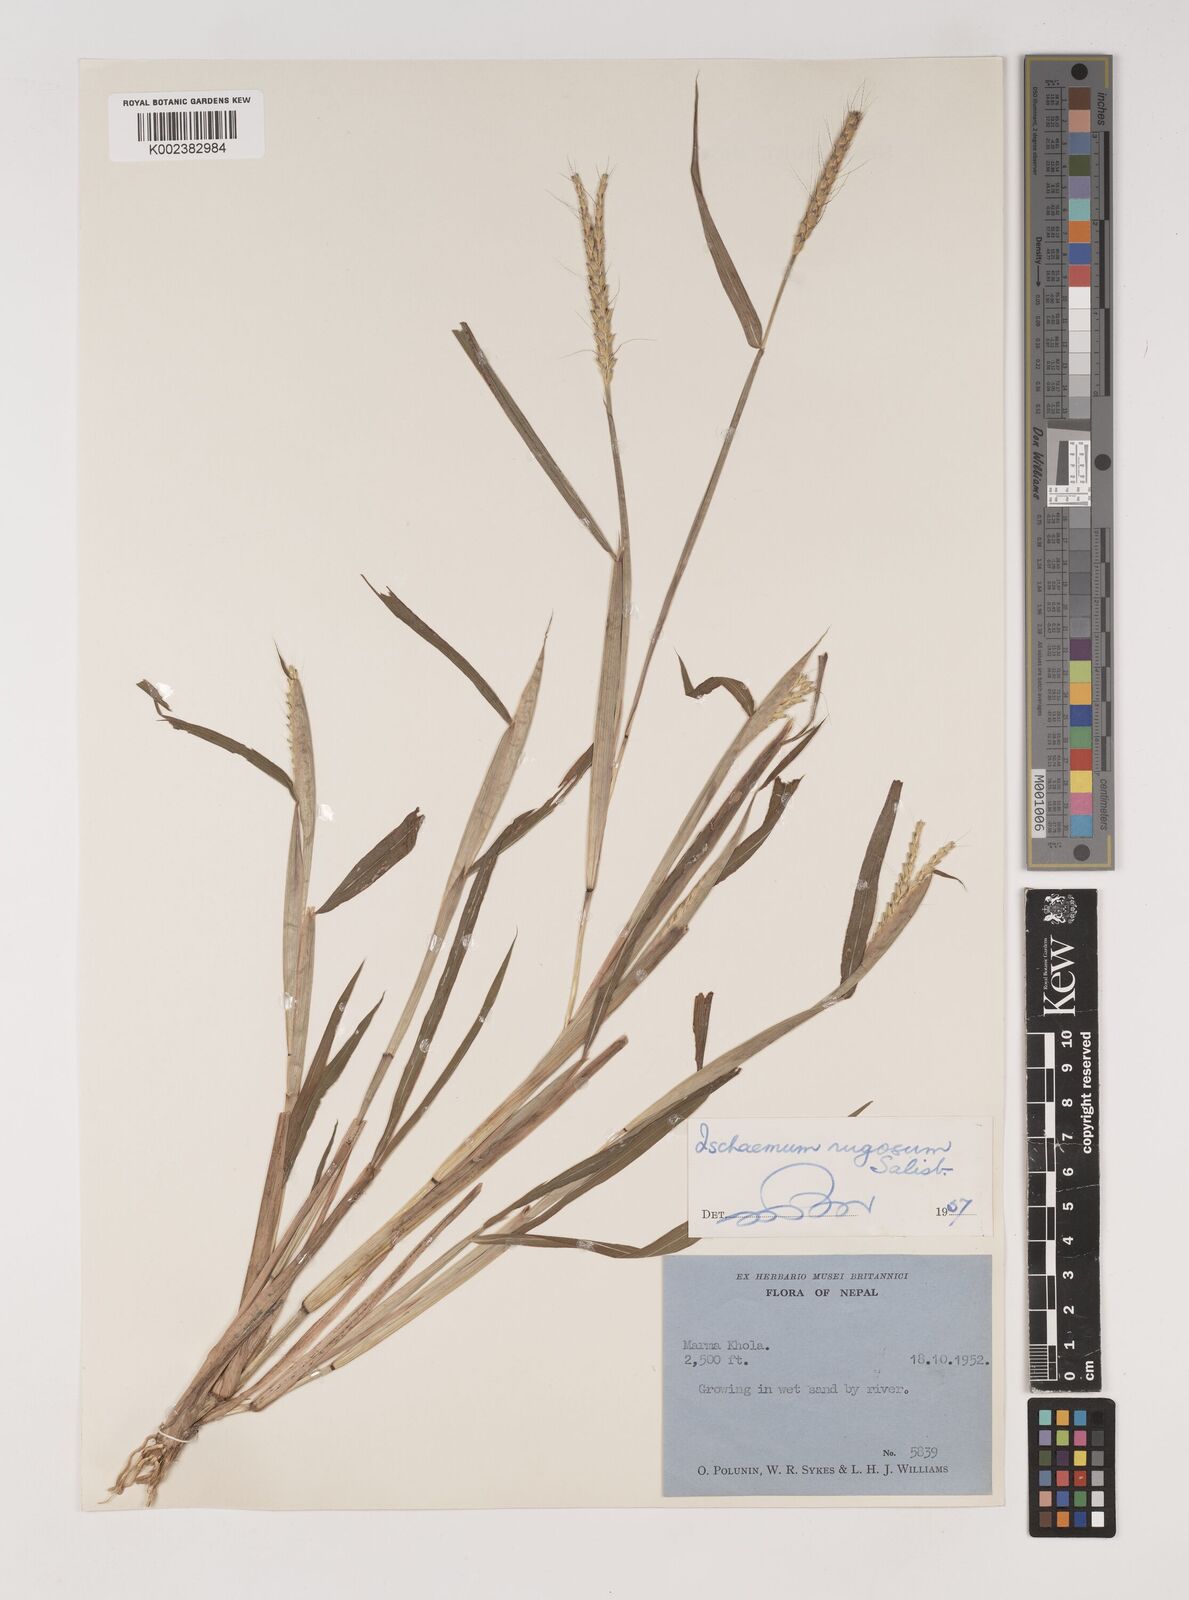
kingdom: Plantae
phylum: Tracheophyta
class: Liliopsida
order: Poales
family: Poaceae
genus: Ischaemum
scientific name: Ischaemum rugosum
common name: Saramatta grass
